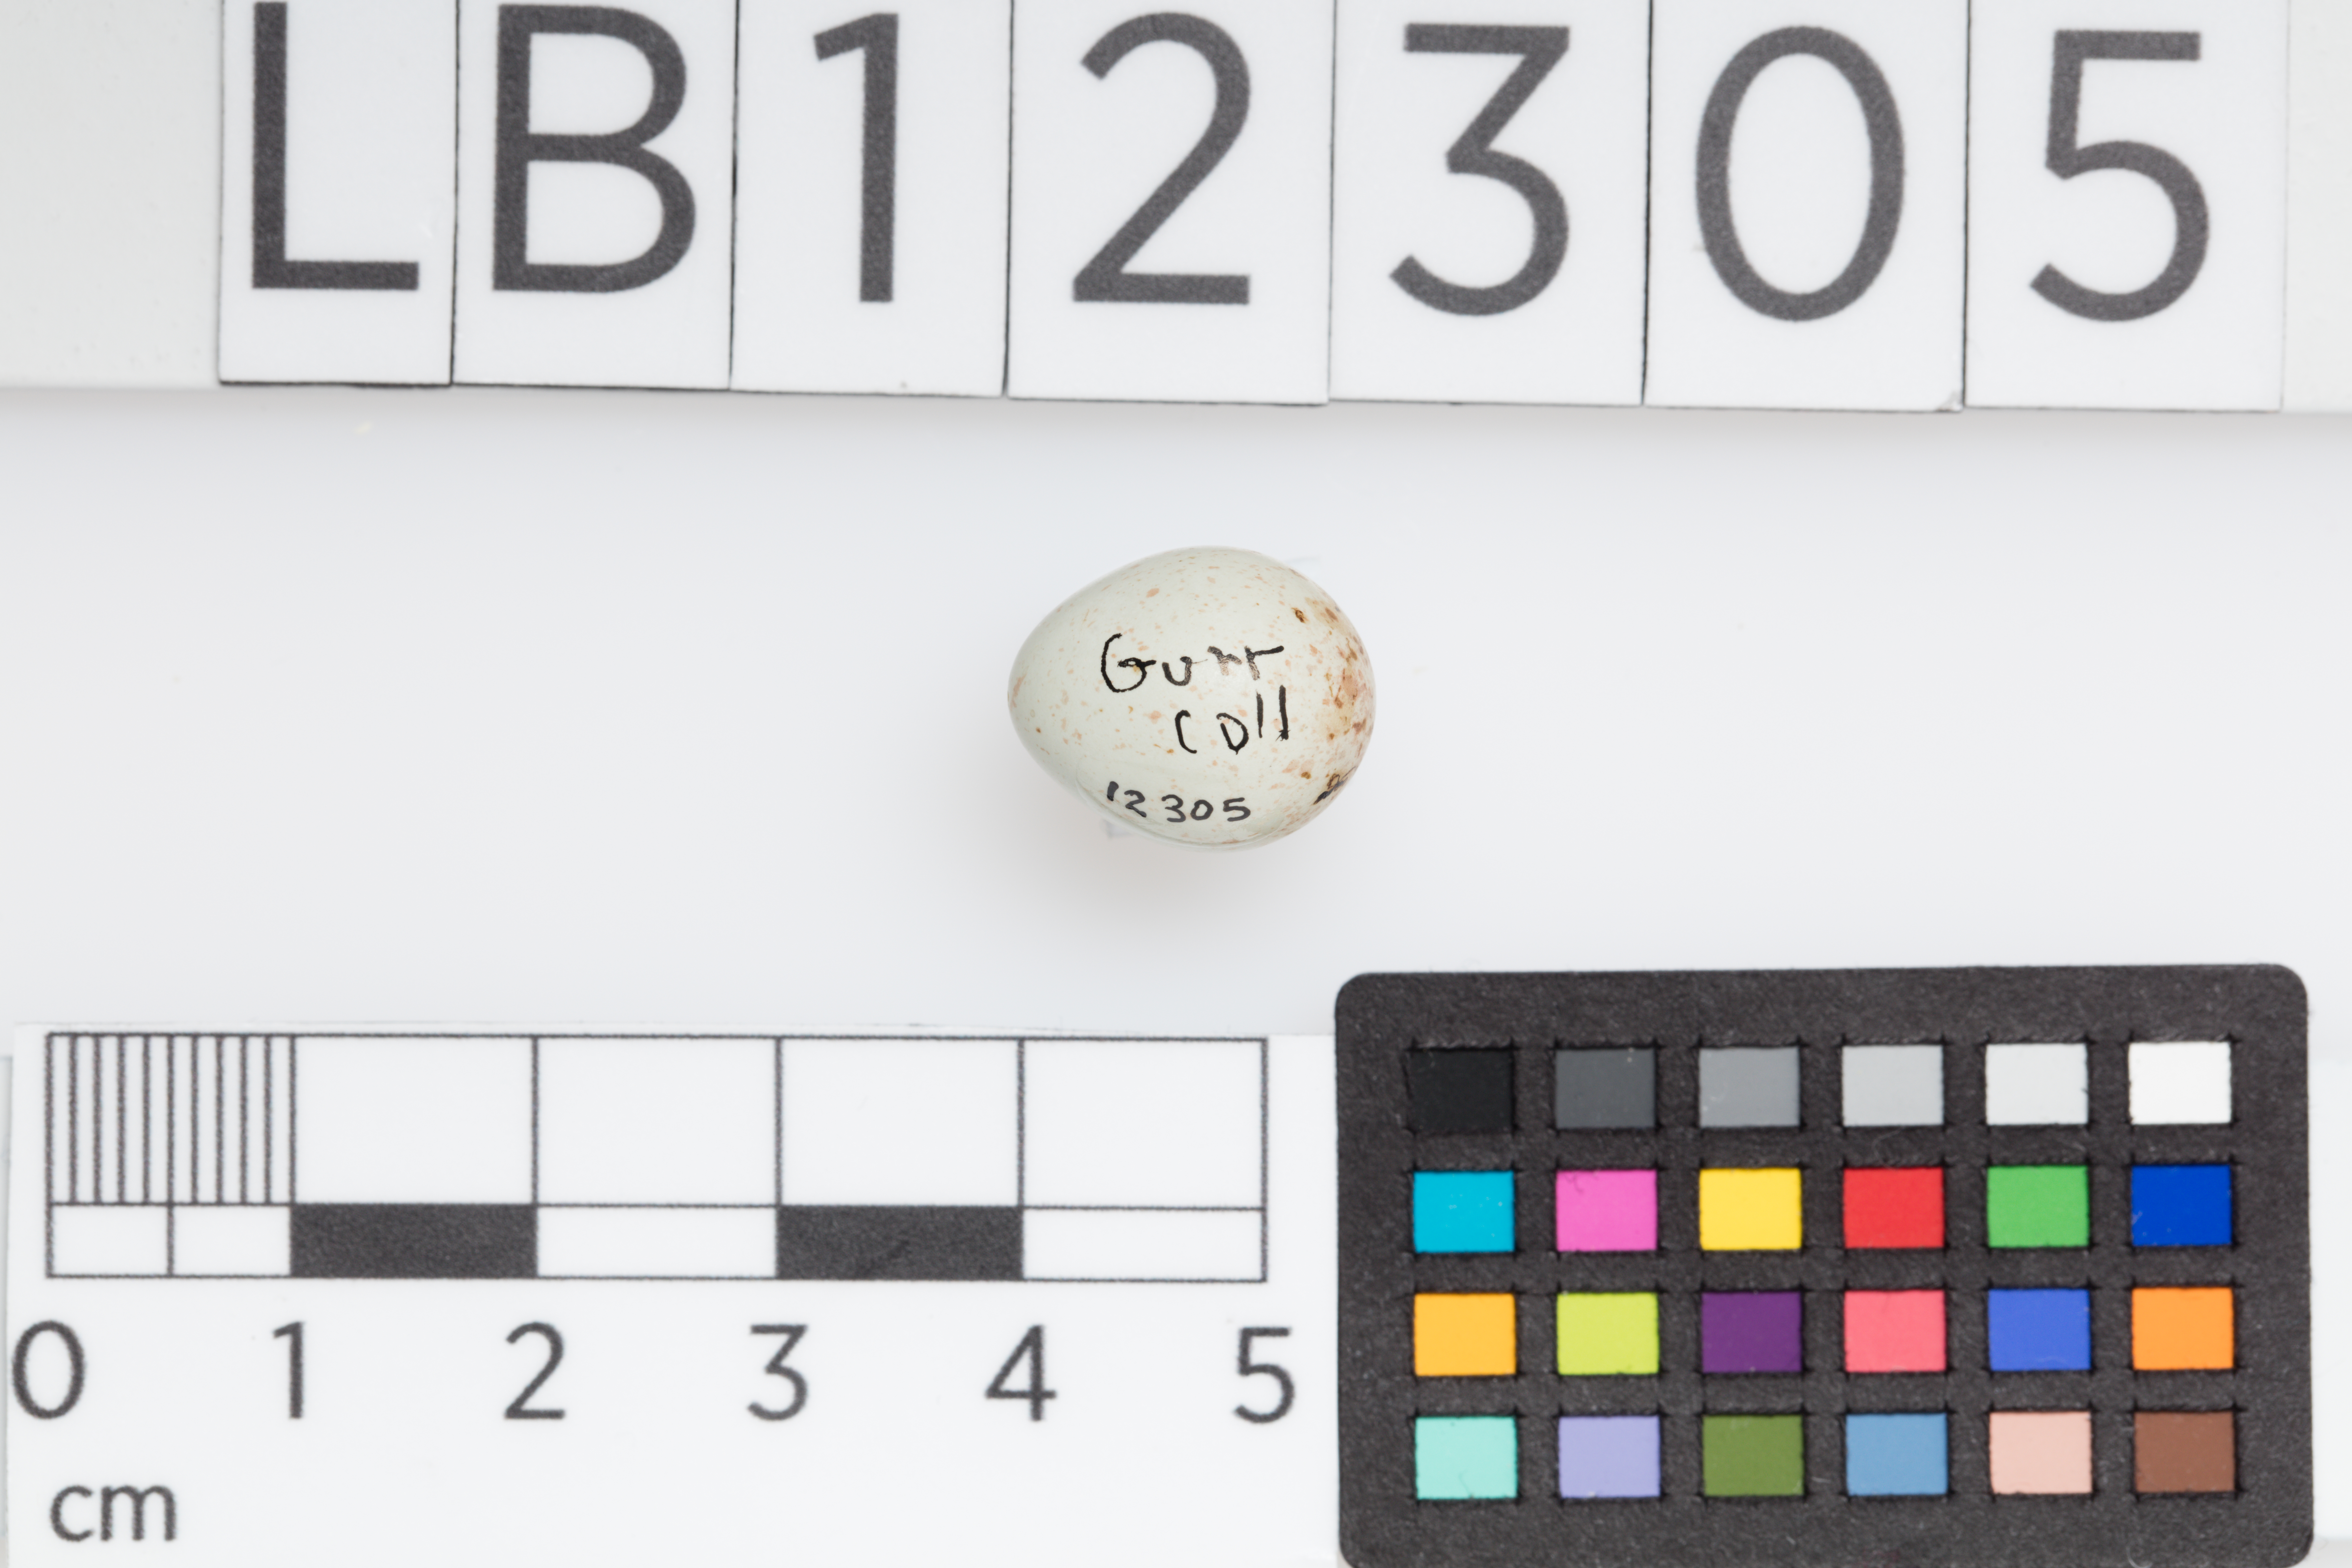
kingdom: Animalia
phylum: Chordata
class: Aves
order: Passeriformes
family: Fringillidae
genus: Acanthis
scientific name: Acanthis flammea
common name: Common redpoll
